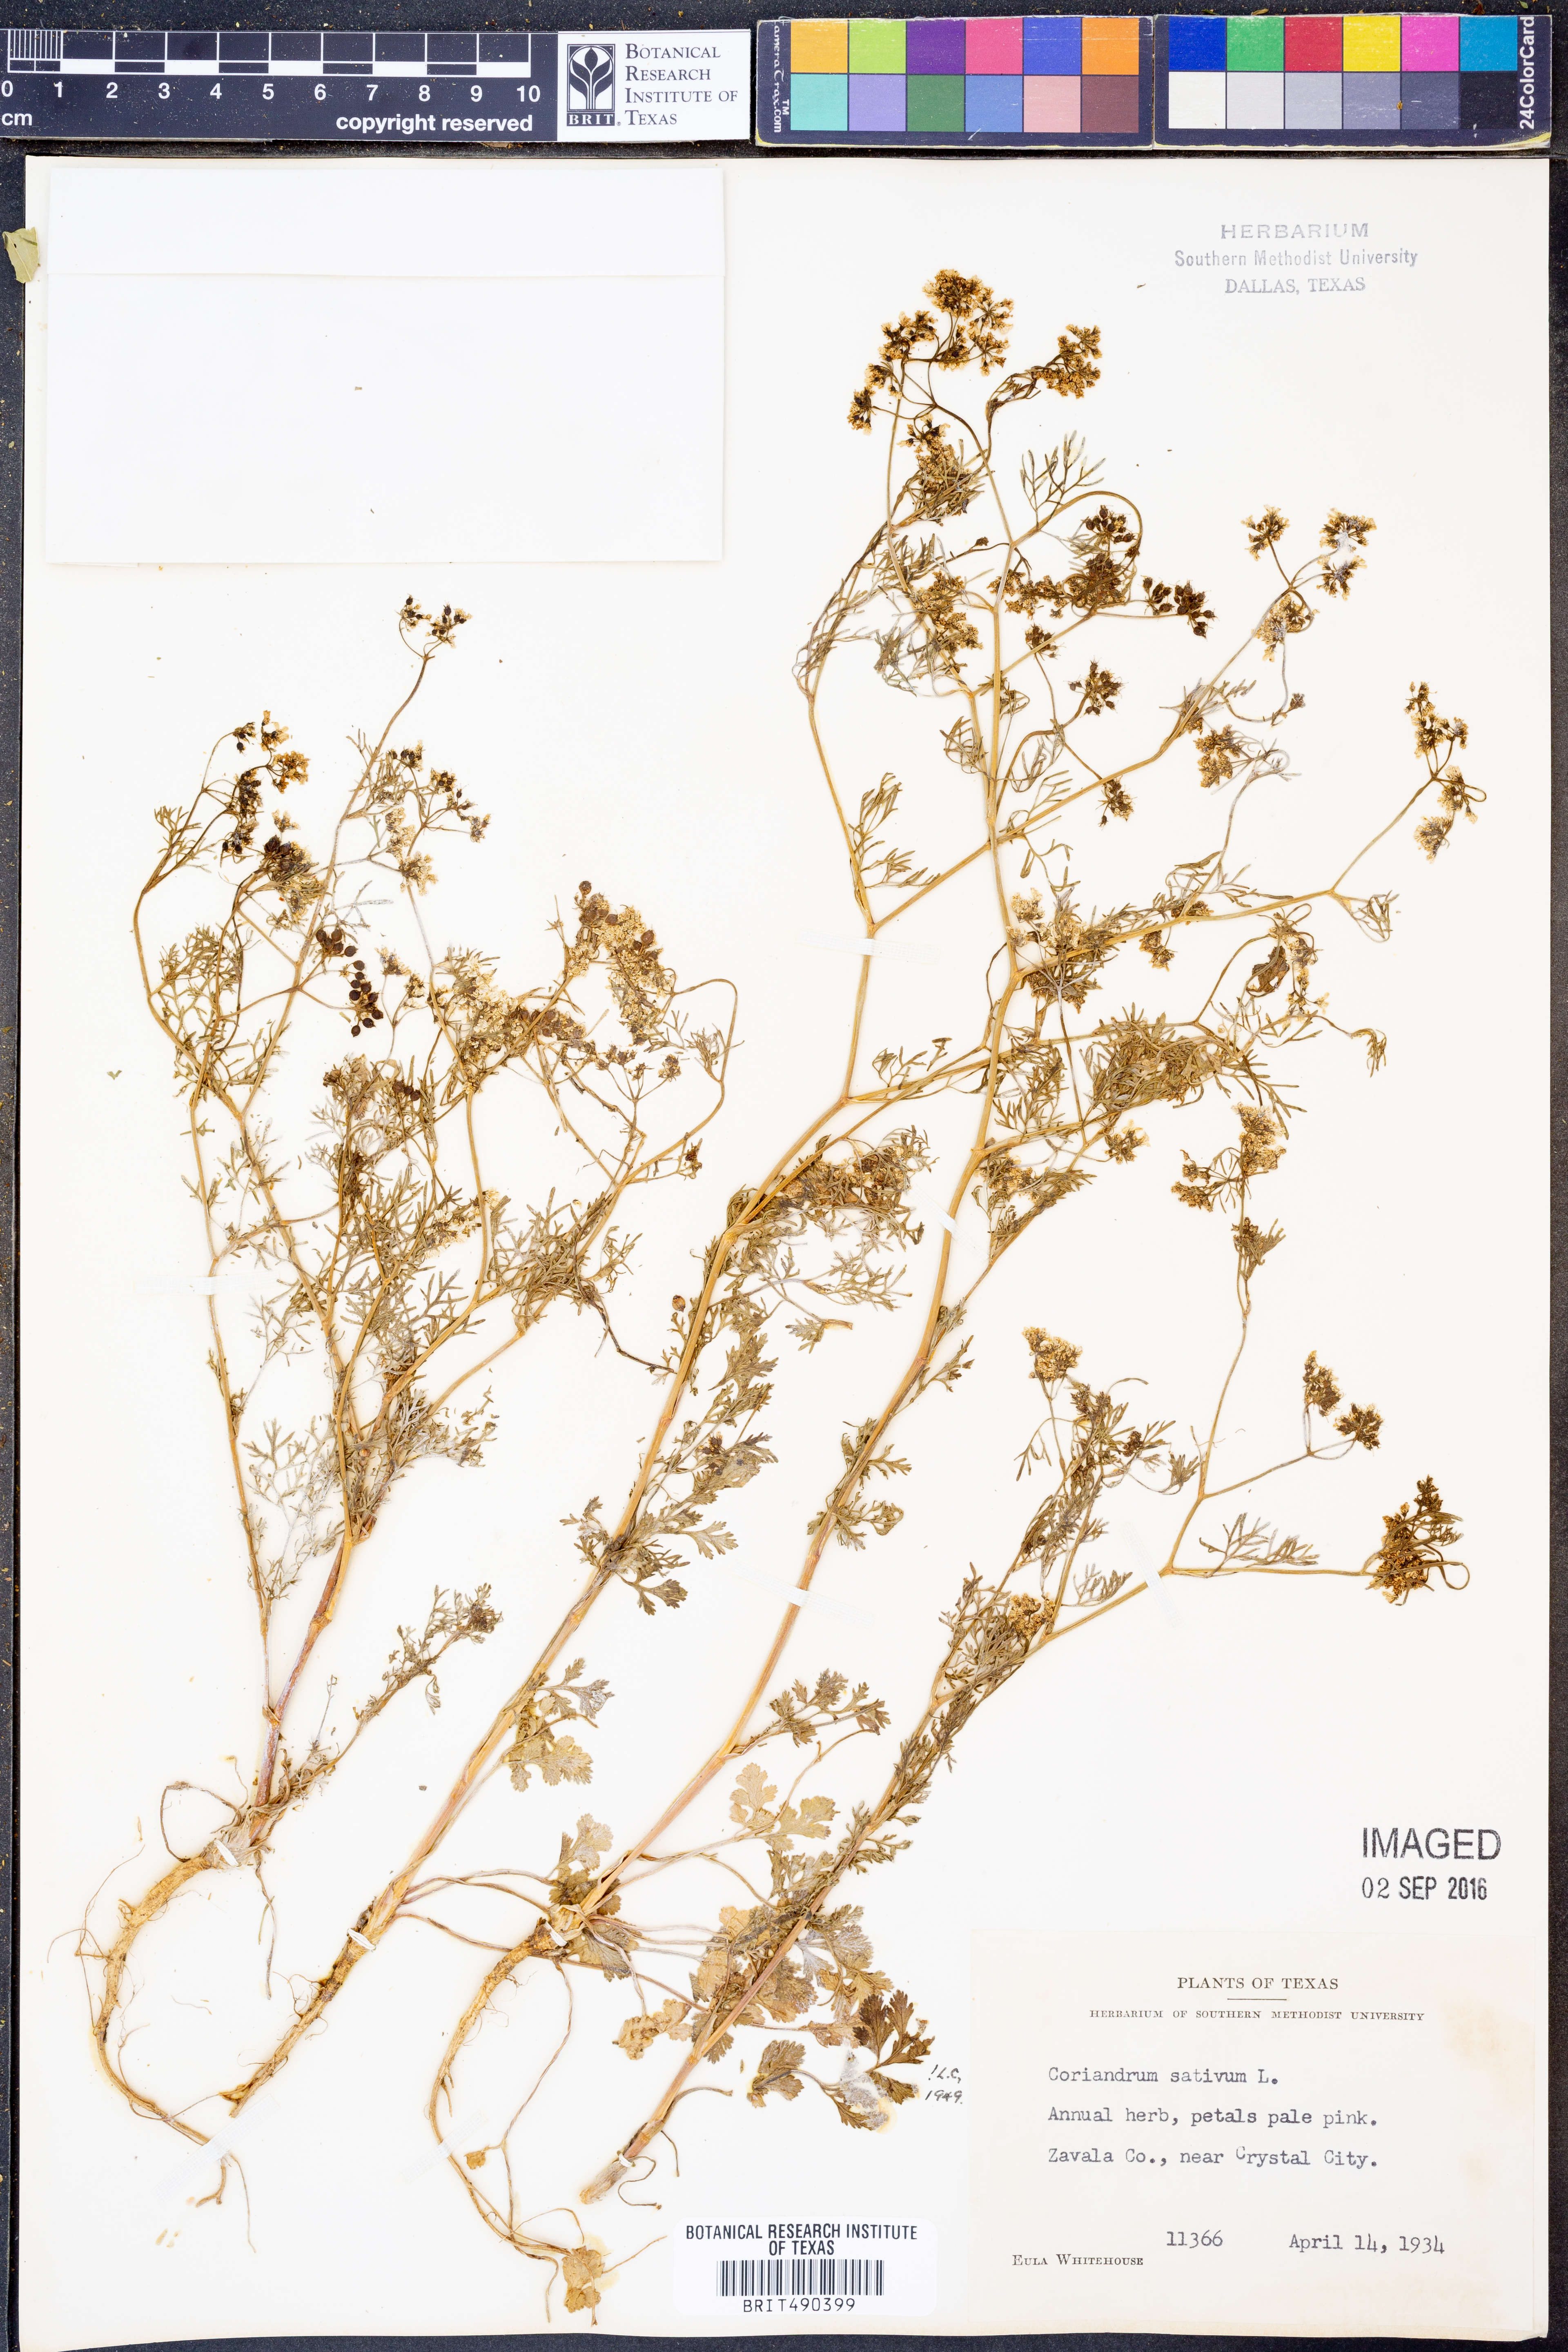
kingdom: Plantae
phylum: Tracheophyta
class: Magnoliopsida
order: Apiales
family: Apiaceae
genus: Coriandrum
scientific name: Coriandrum sativum
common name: Coriander
